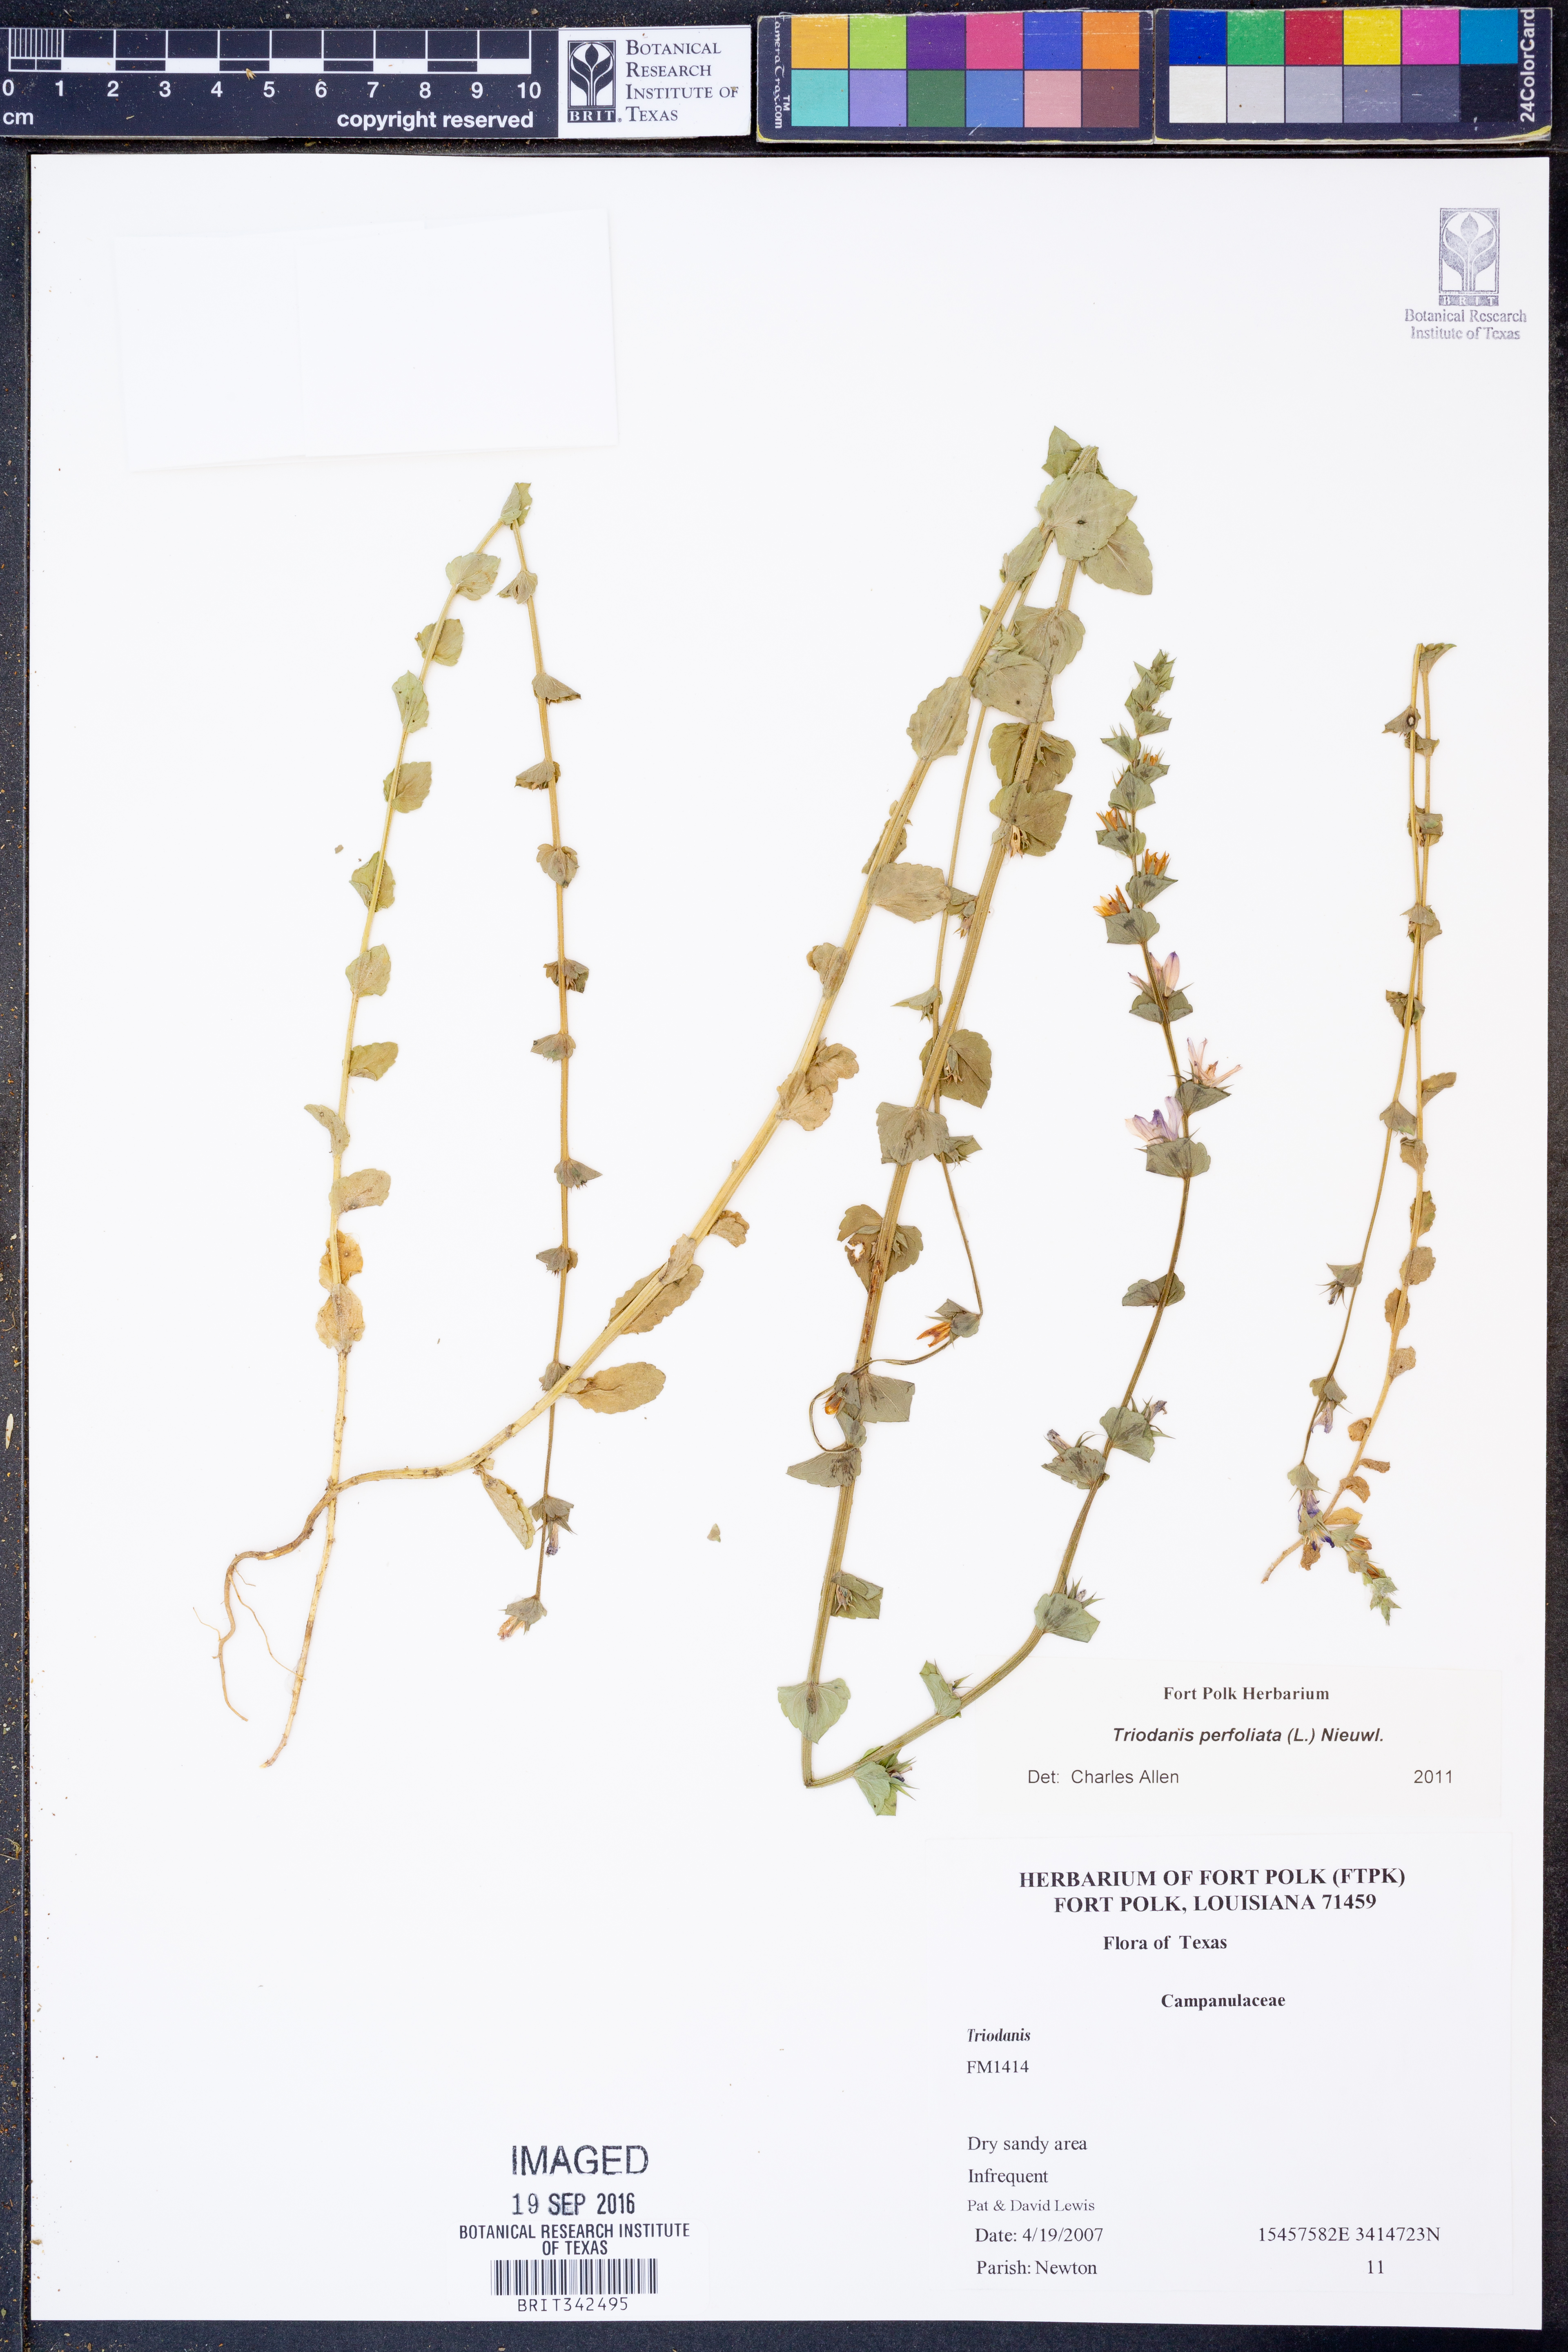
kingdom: Plantae
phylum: Tracheophyta
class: Magnoliopsida
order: Asterales
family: Campanulaceae
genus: Triodanis
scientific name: Triodanis perfoliata
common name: Clasping venus' looking-glass
